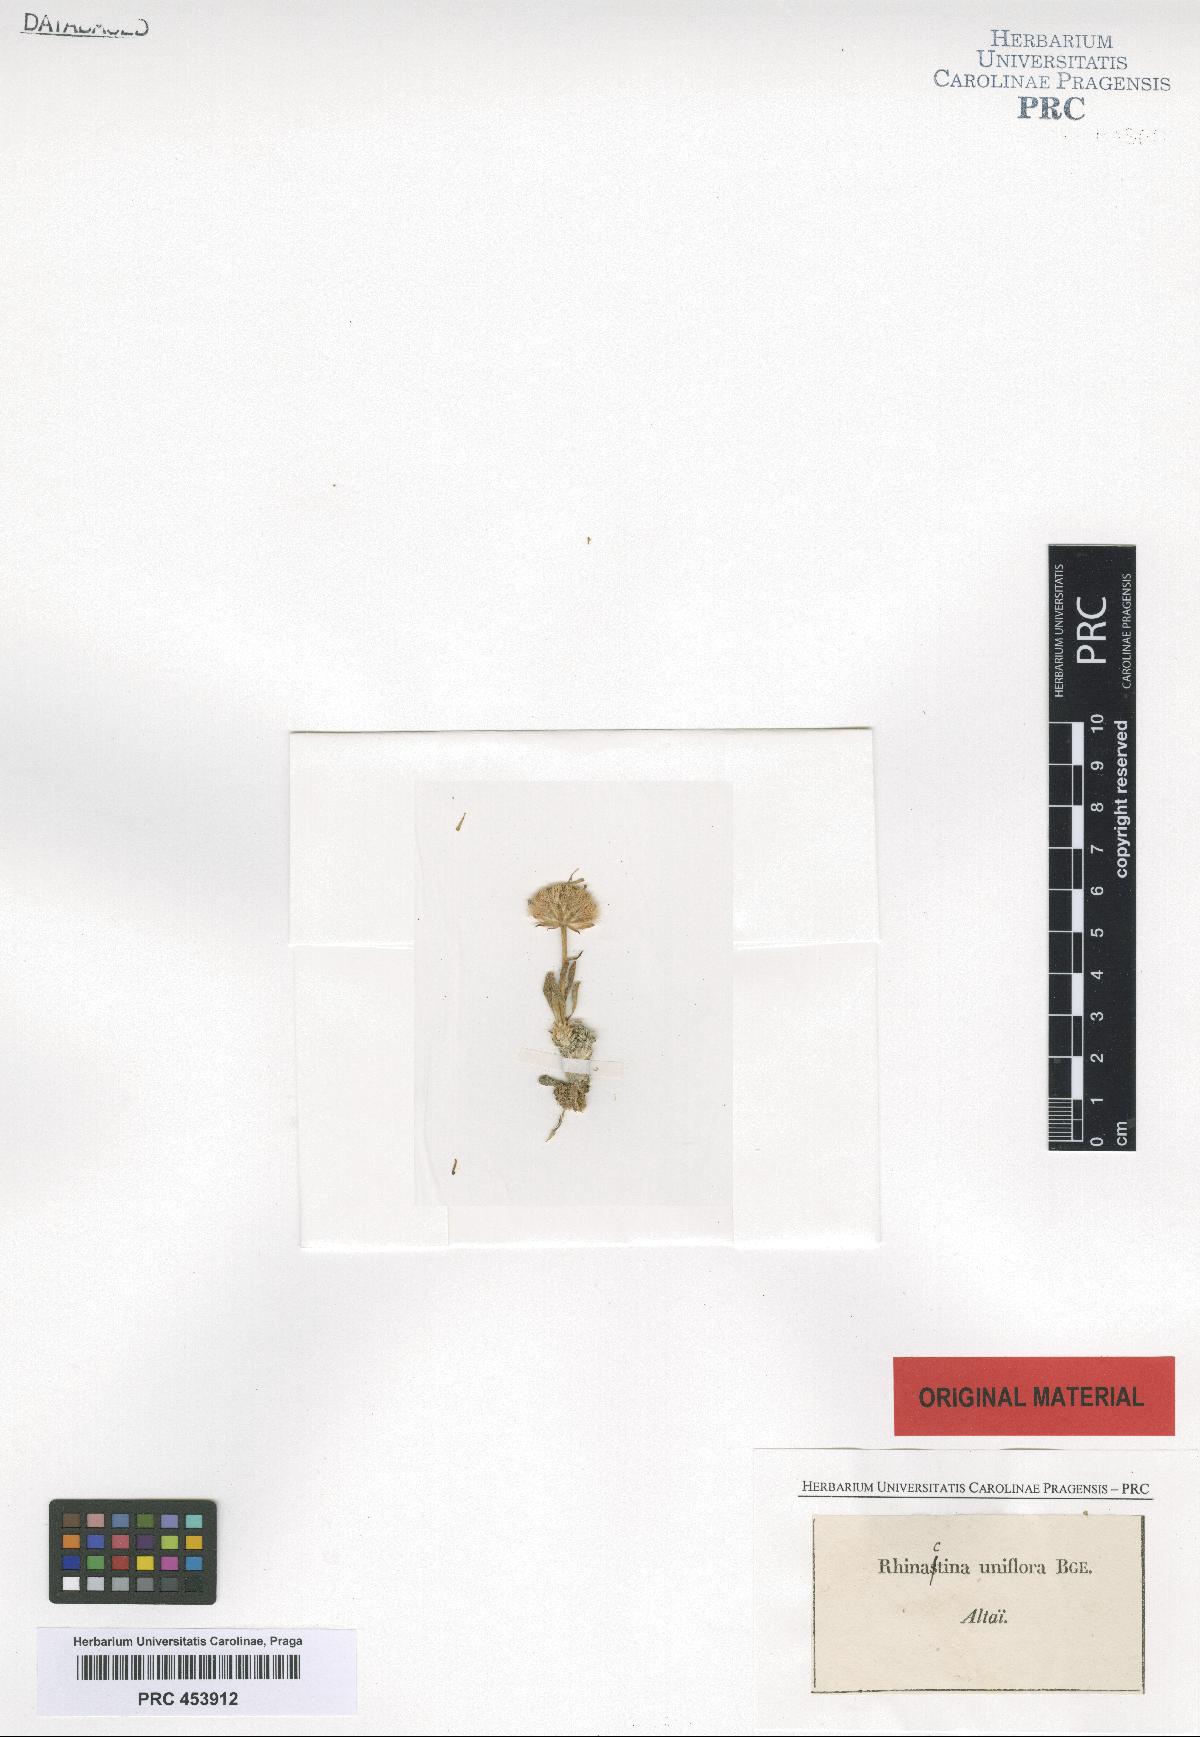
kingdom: Plantae
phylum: Tracheophyta
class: Magnoliopsida
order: Asterales
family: Asteraceae
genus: Rhinactinidia
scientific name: Rhinactinidia eremophila
